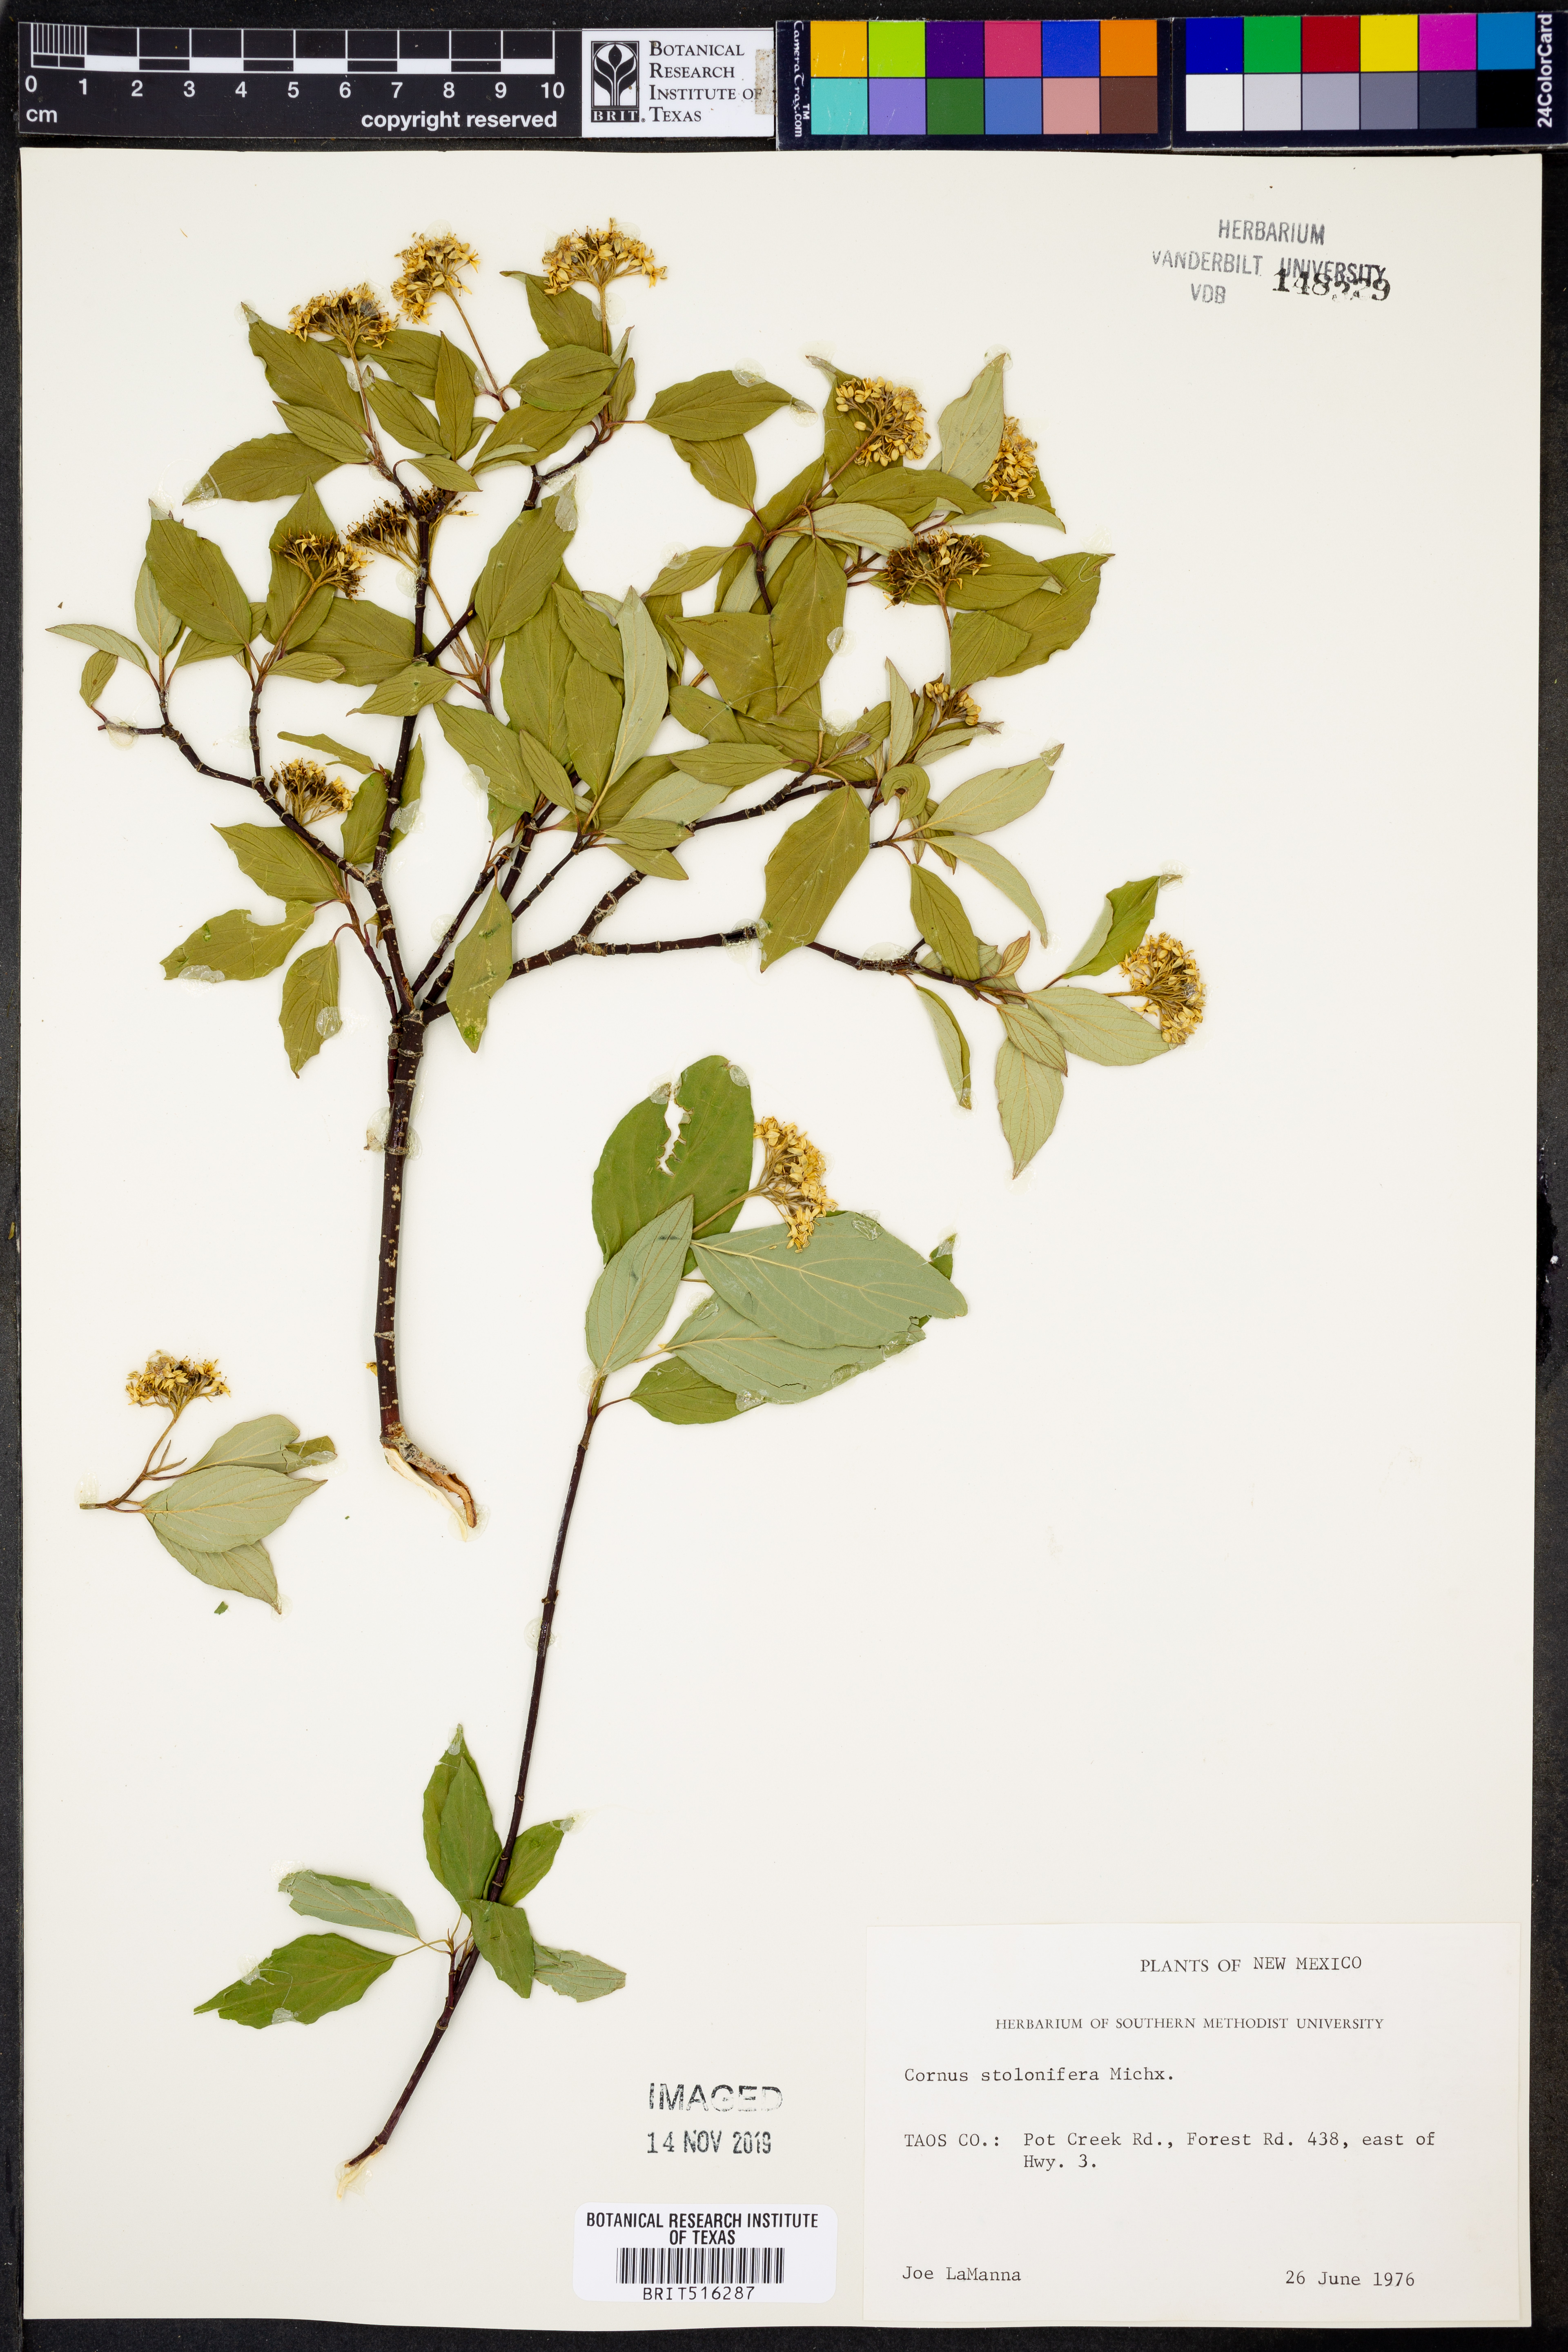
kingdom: Plantae
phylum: Tracheophyta
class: Magnoliopsida
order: Cornales
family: Cornaceae
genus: Cornus
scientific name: Cornus sericea
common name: Red-osier dogwood
